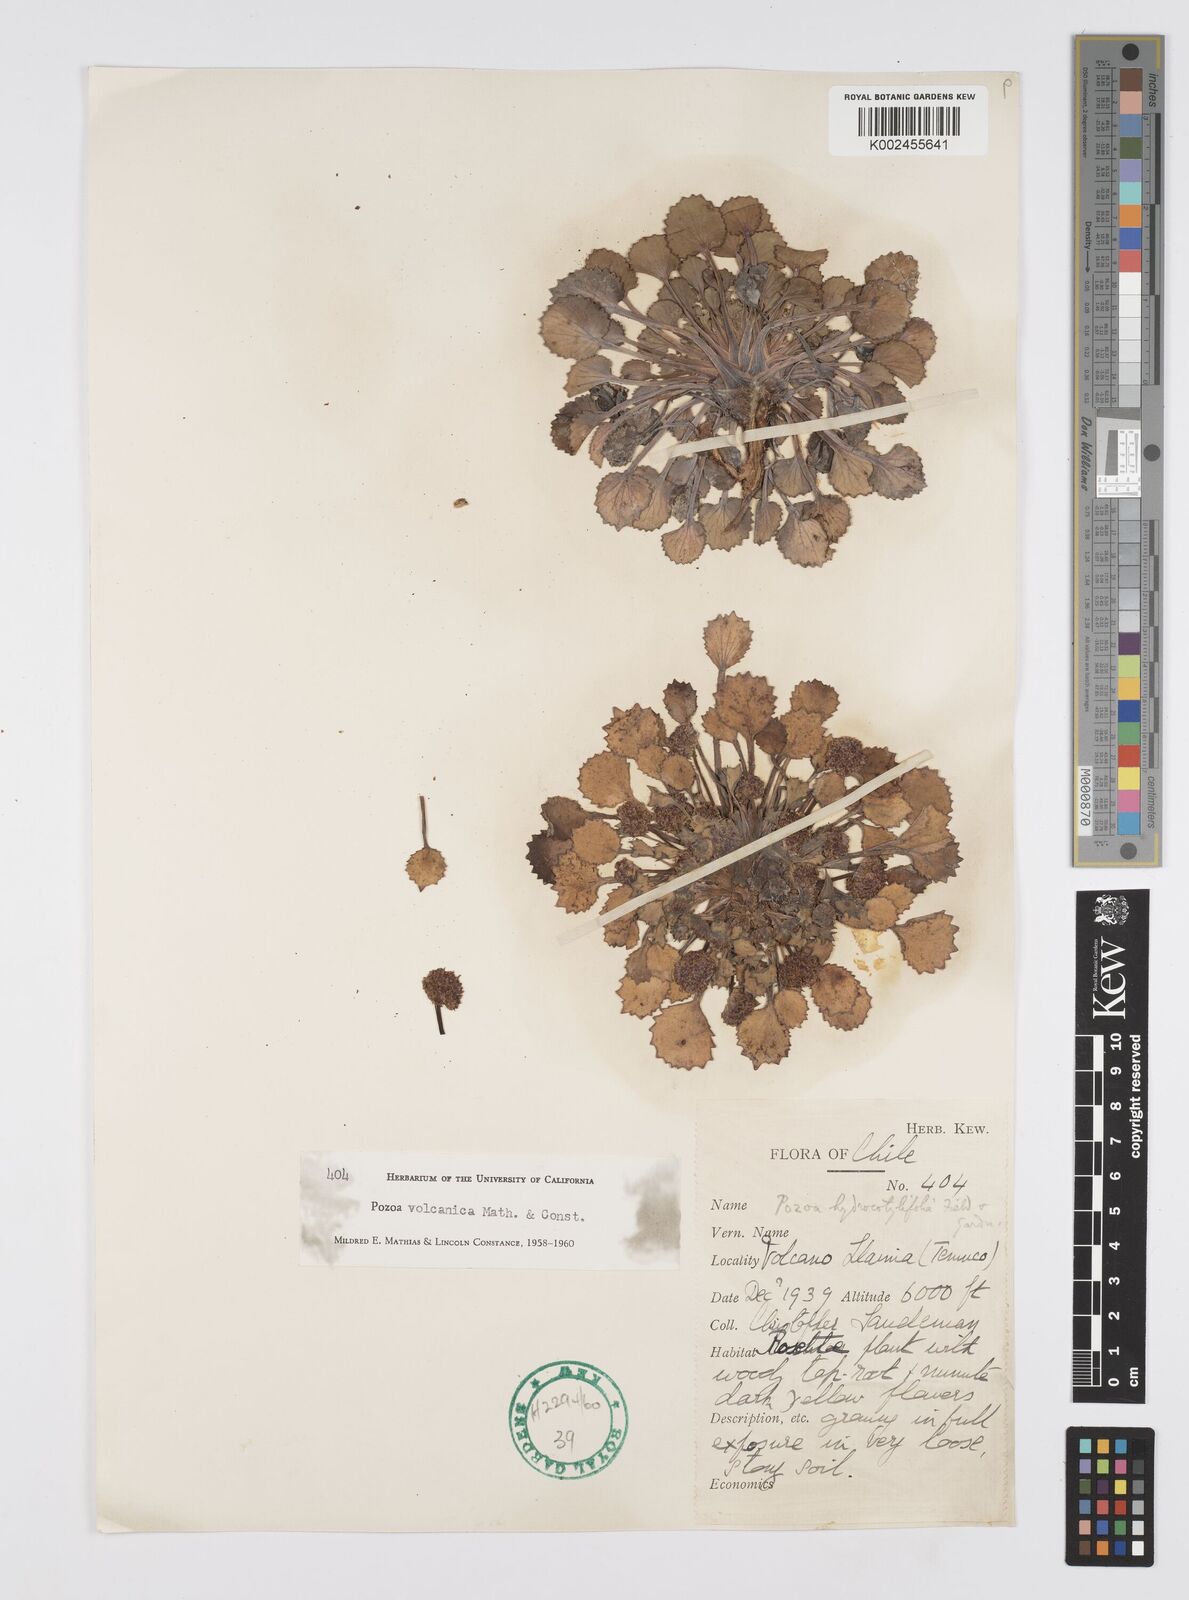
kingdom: Plantae
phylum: Tracheophyta
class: Magnoliopsida
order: Apiales
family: Apiaceae
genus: Pozoa
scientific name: Pozoa volcanica
